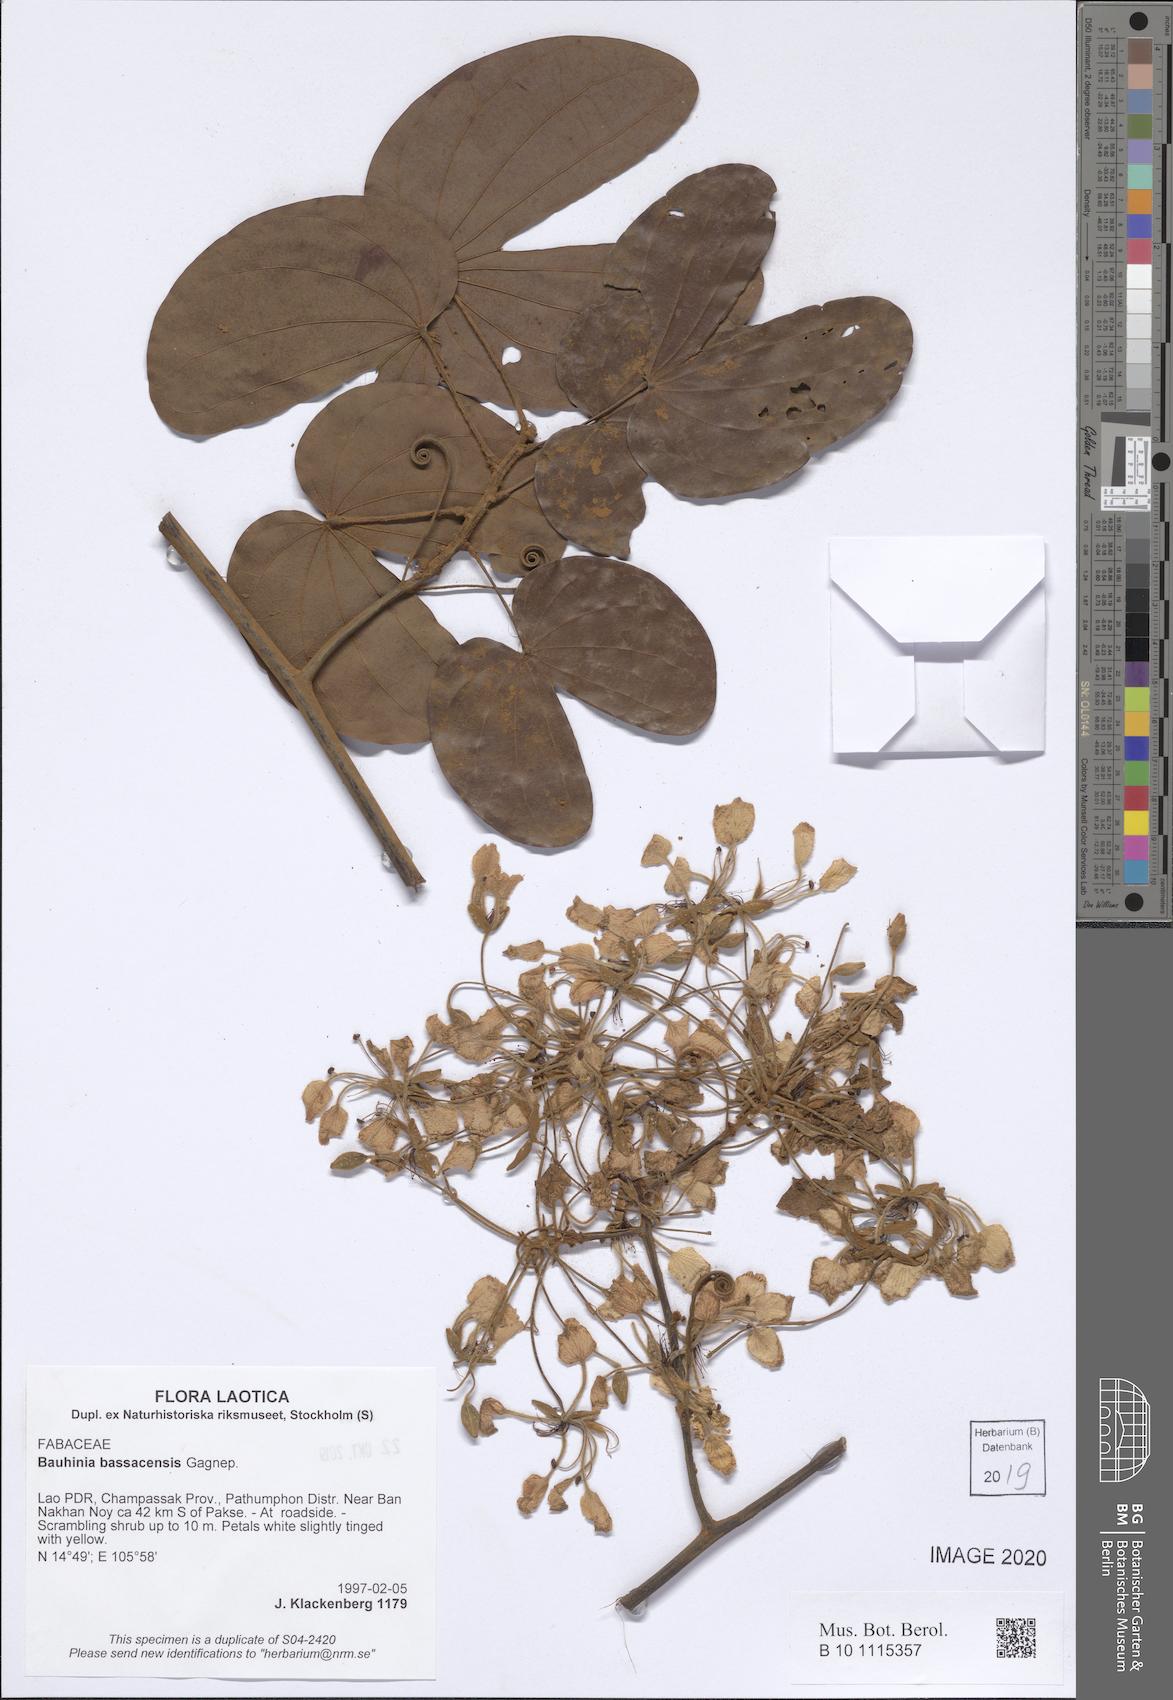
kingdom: Plantae
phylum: Tracheophyta
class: Magnoliopsida
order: Fabales
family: Fabaceae
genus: Phanera
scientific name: Phanera bassacensis
